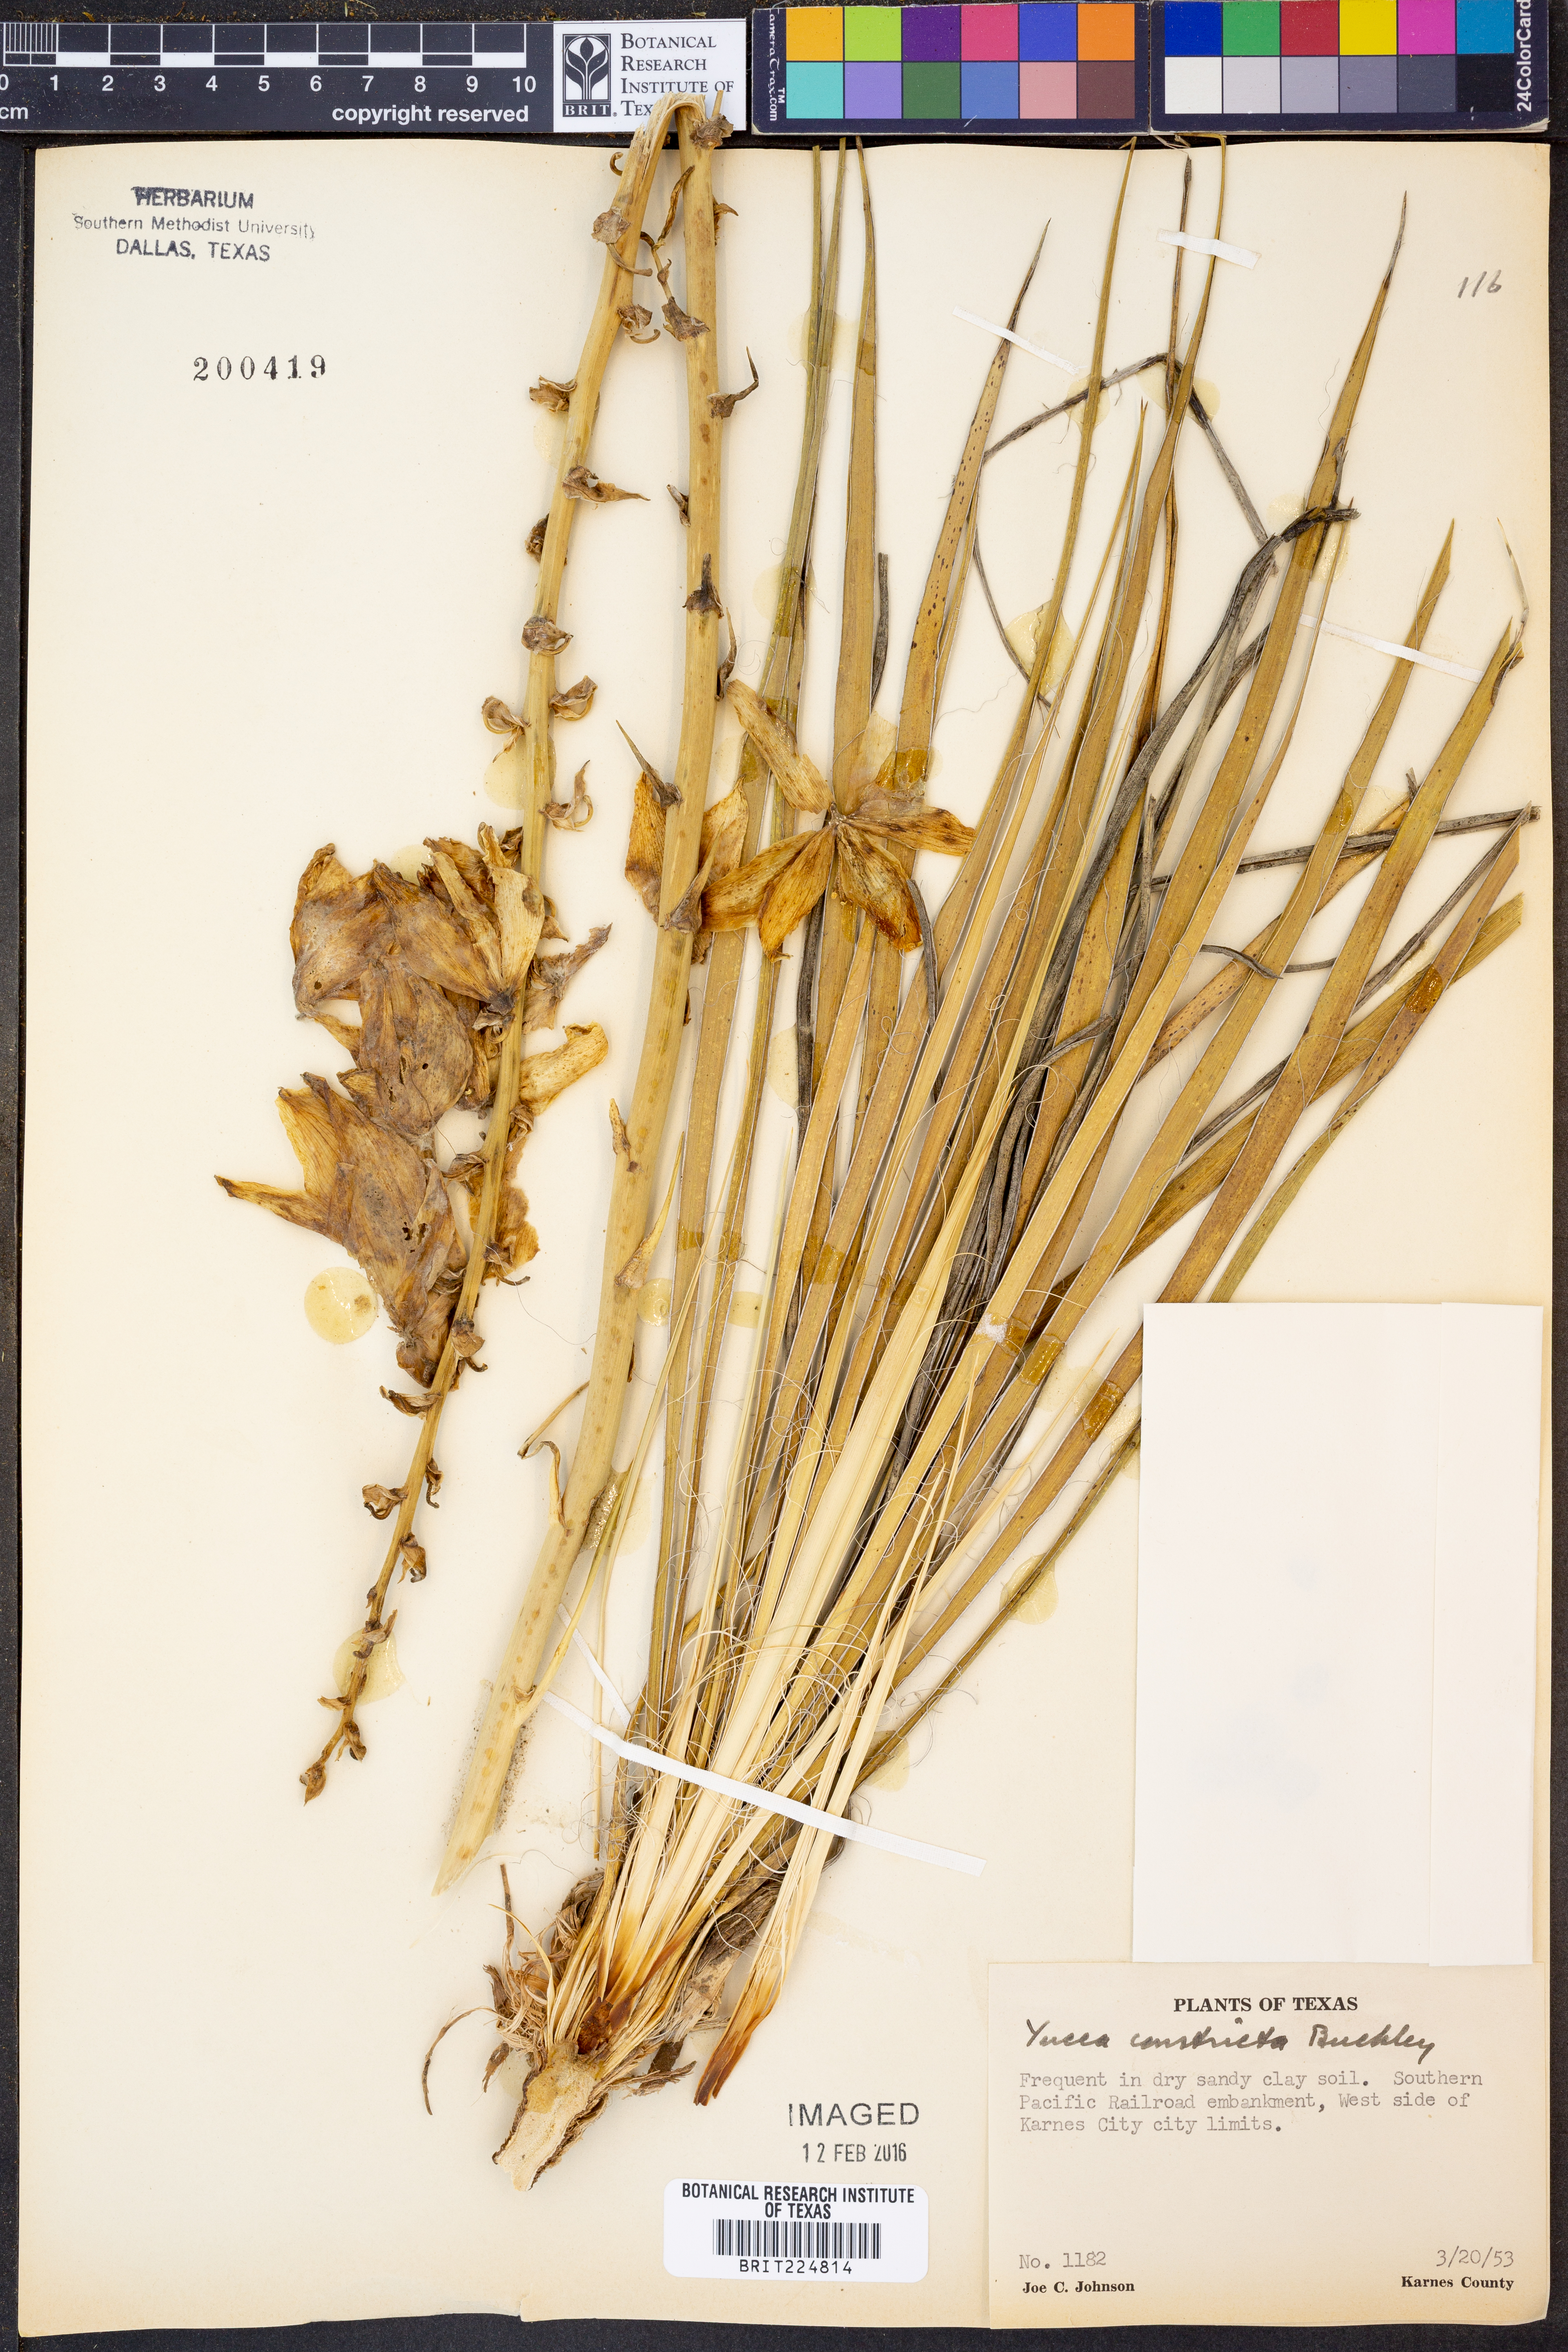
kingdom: Plantae
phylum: Tracheophyta
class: Liliopsida
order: Asparagales
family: Asparagaceae
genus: Yucca
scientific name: Yucca constricta
